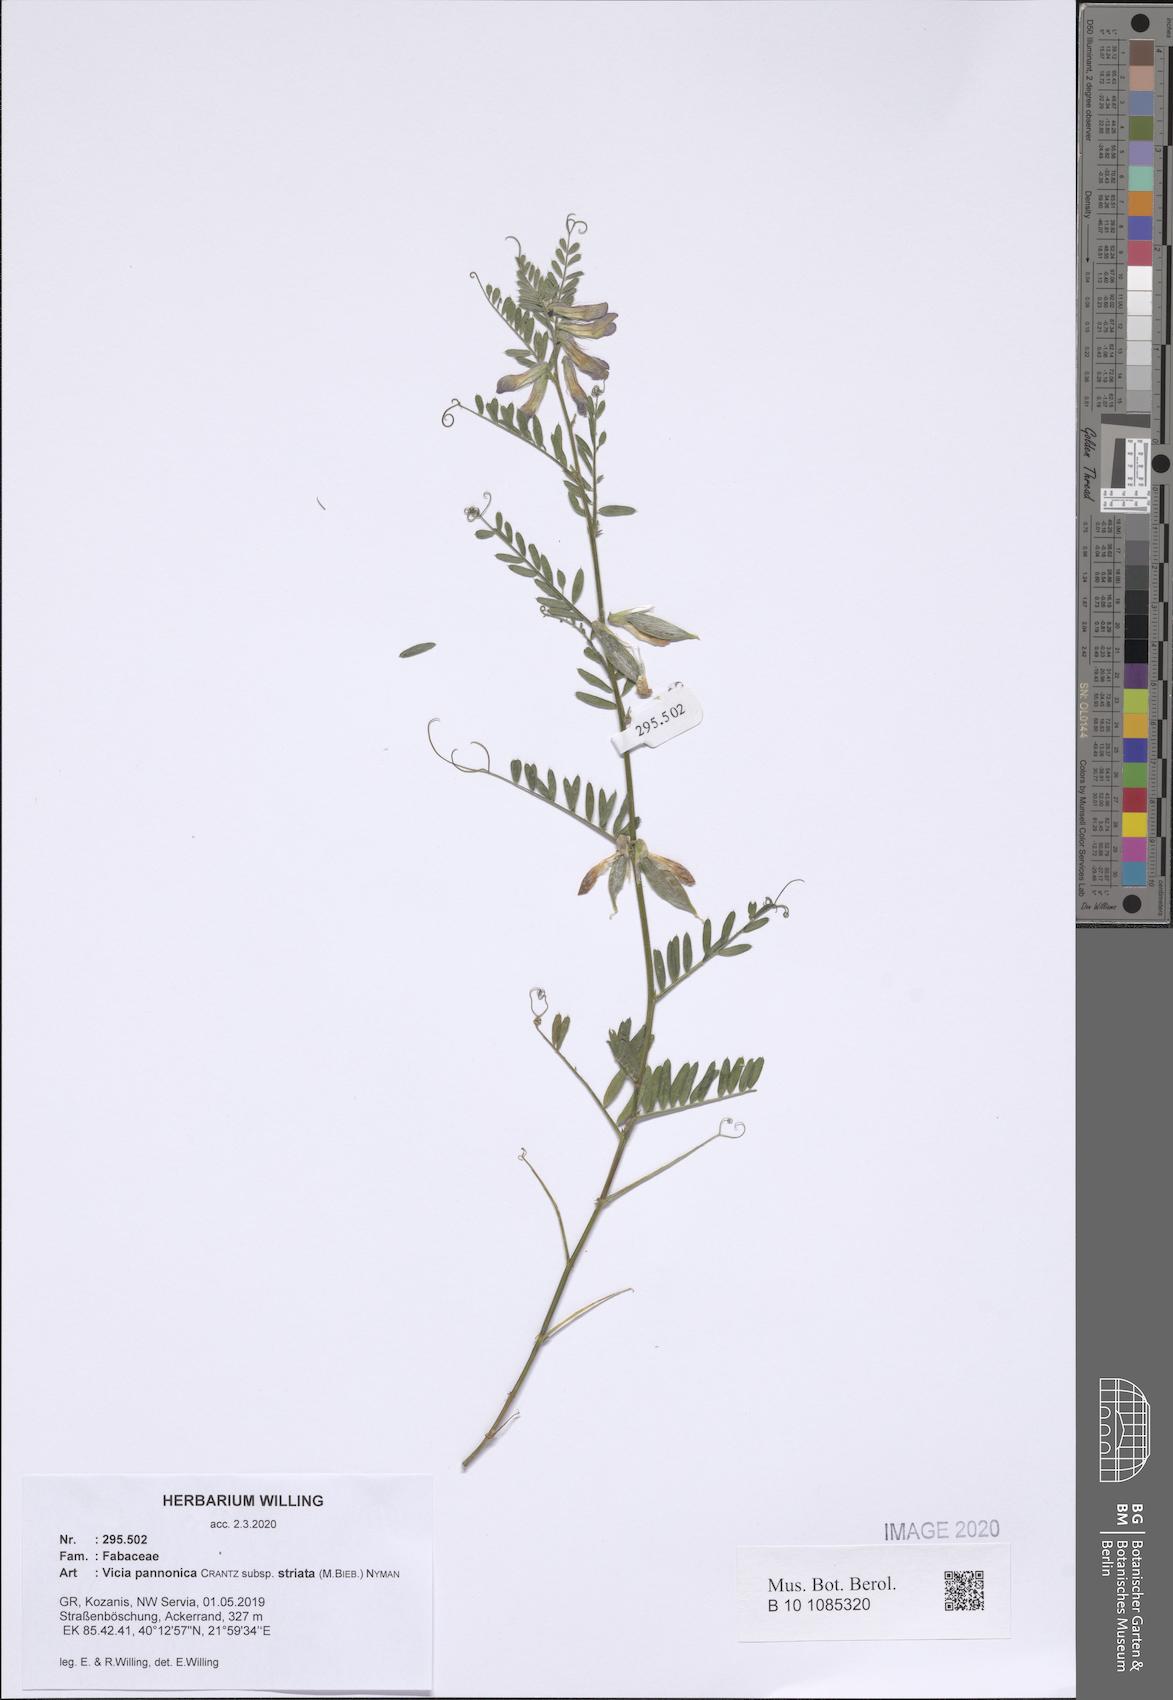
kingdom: Plantae
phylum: Tracheophyta
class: Magnoliopsida
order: Fabales
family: Fabaceae
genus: Vicia
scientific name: Vicia pannonica
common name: Hungarian vetch
